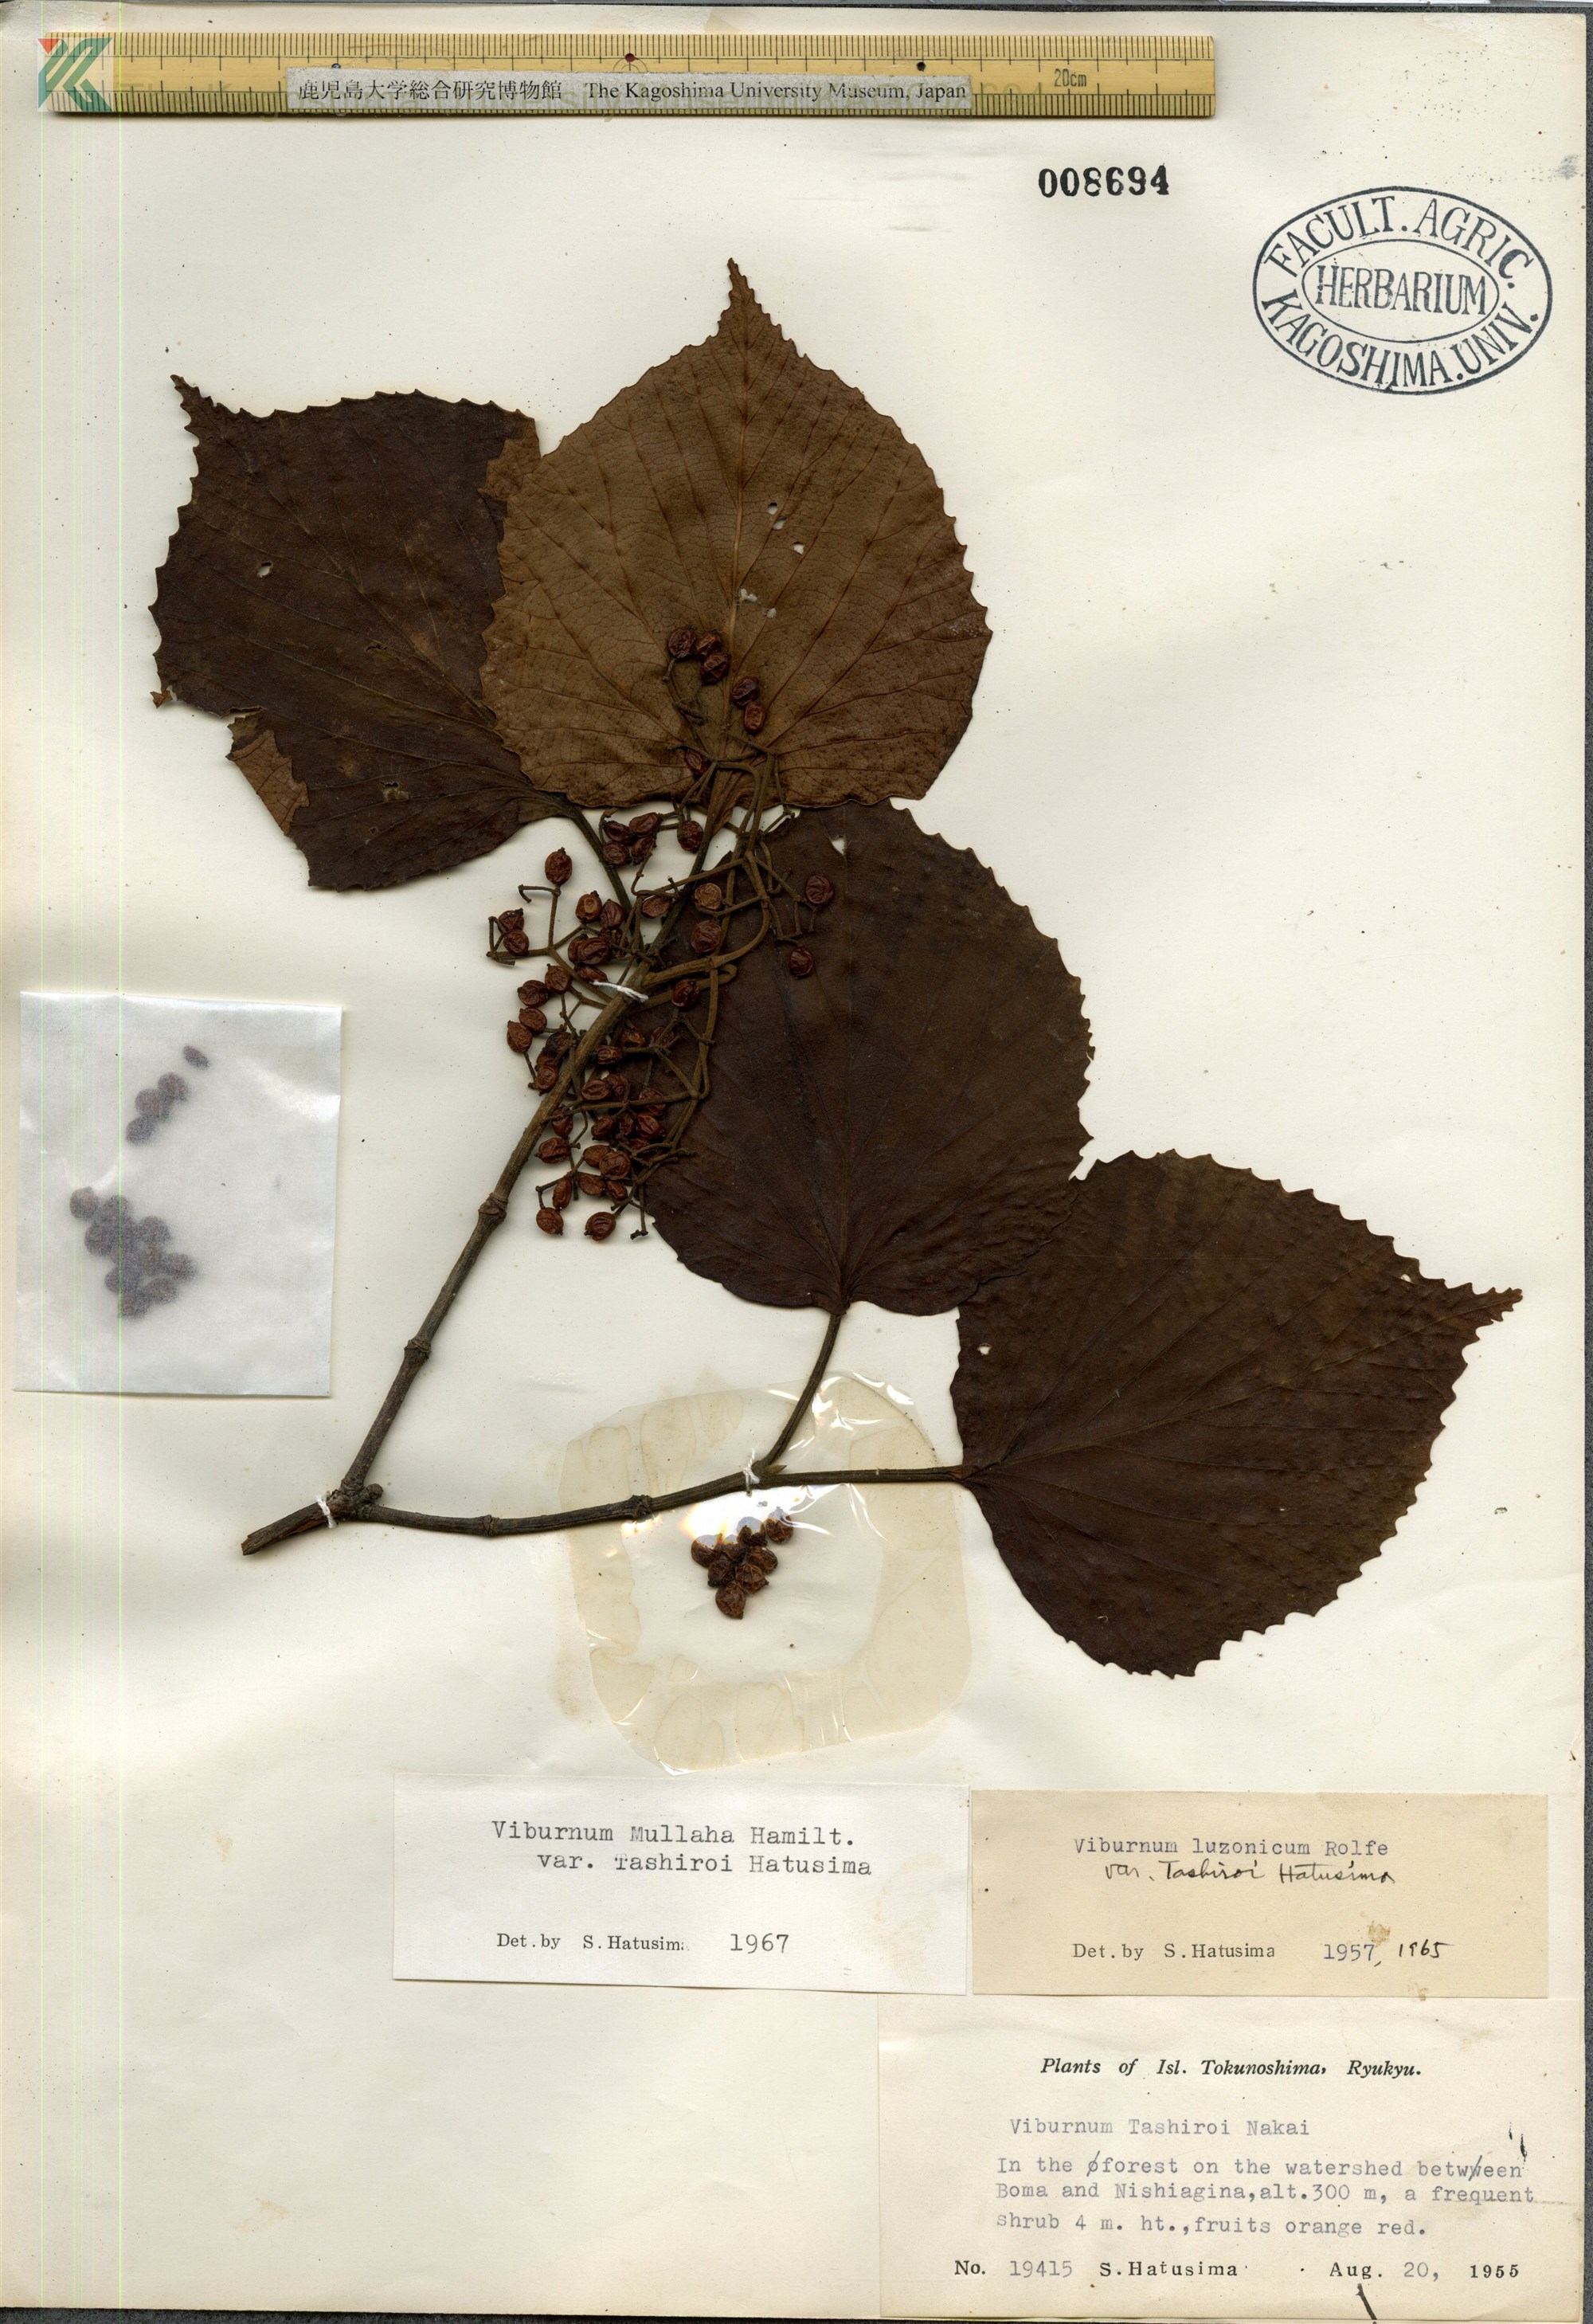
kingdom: Plantae
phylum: Tracheophyta
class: Magnoliopsida
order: Dipsacales
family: Viburnaceae
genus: Viburnum
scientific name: Viburnum luzonicum
